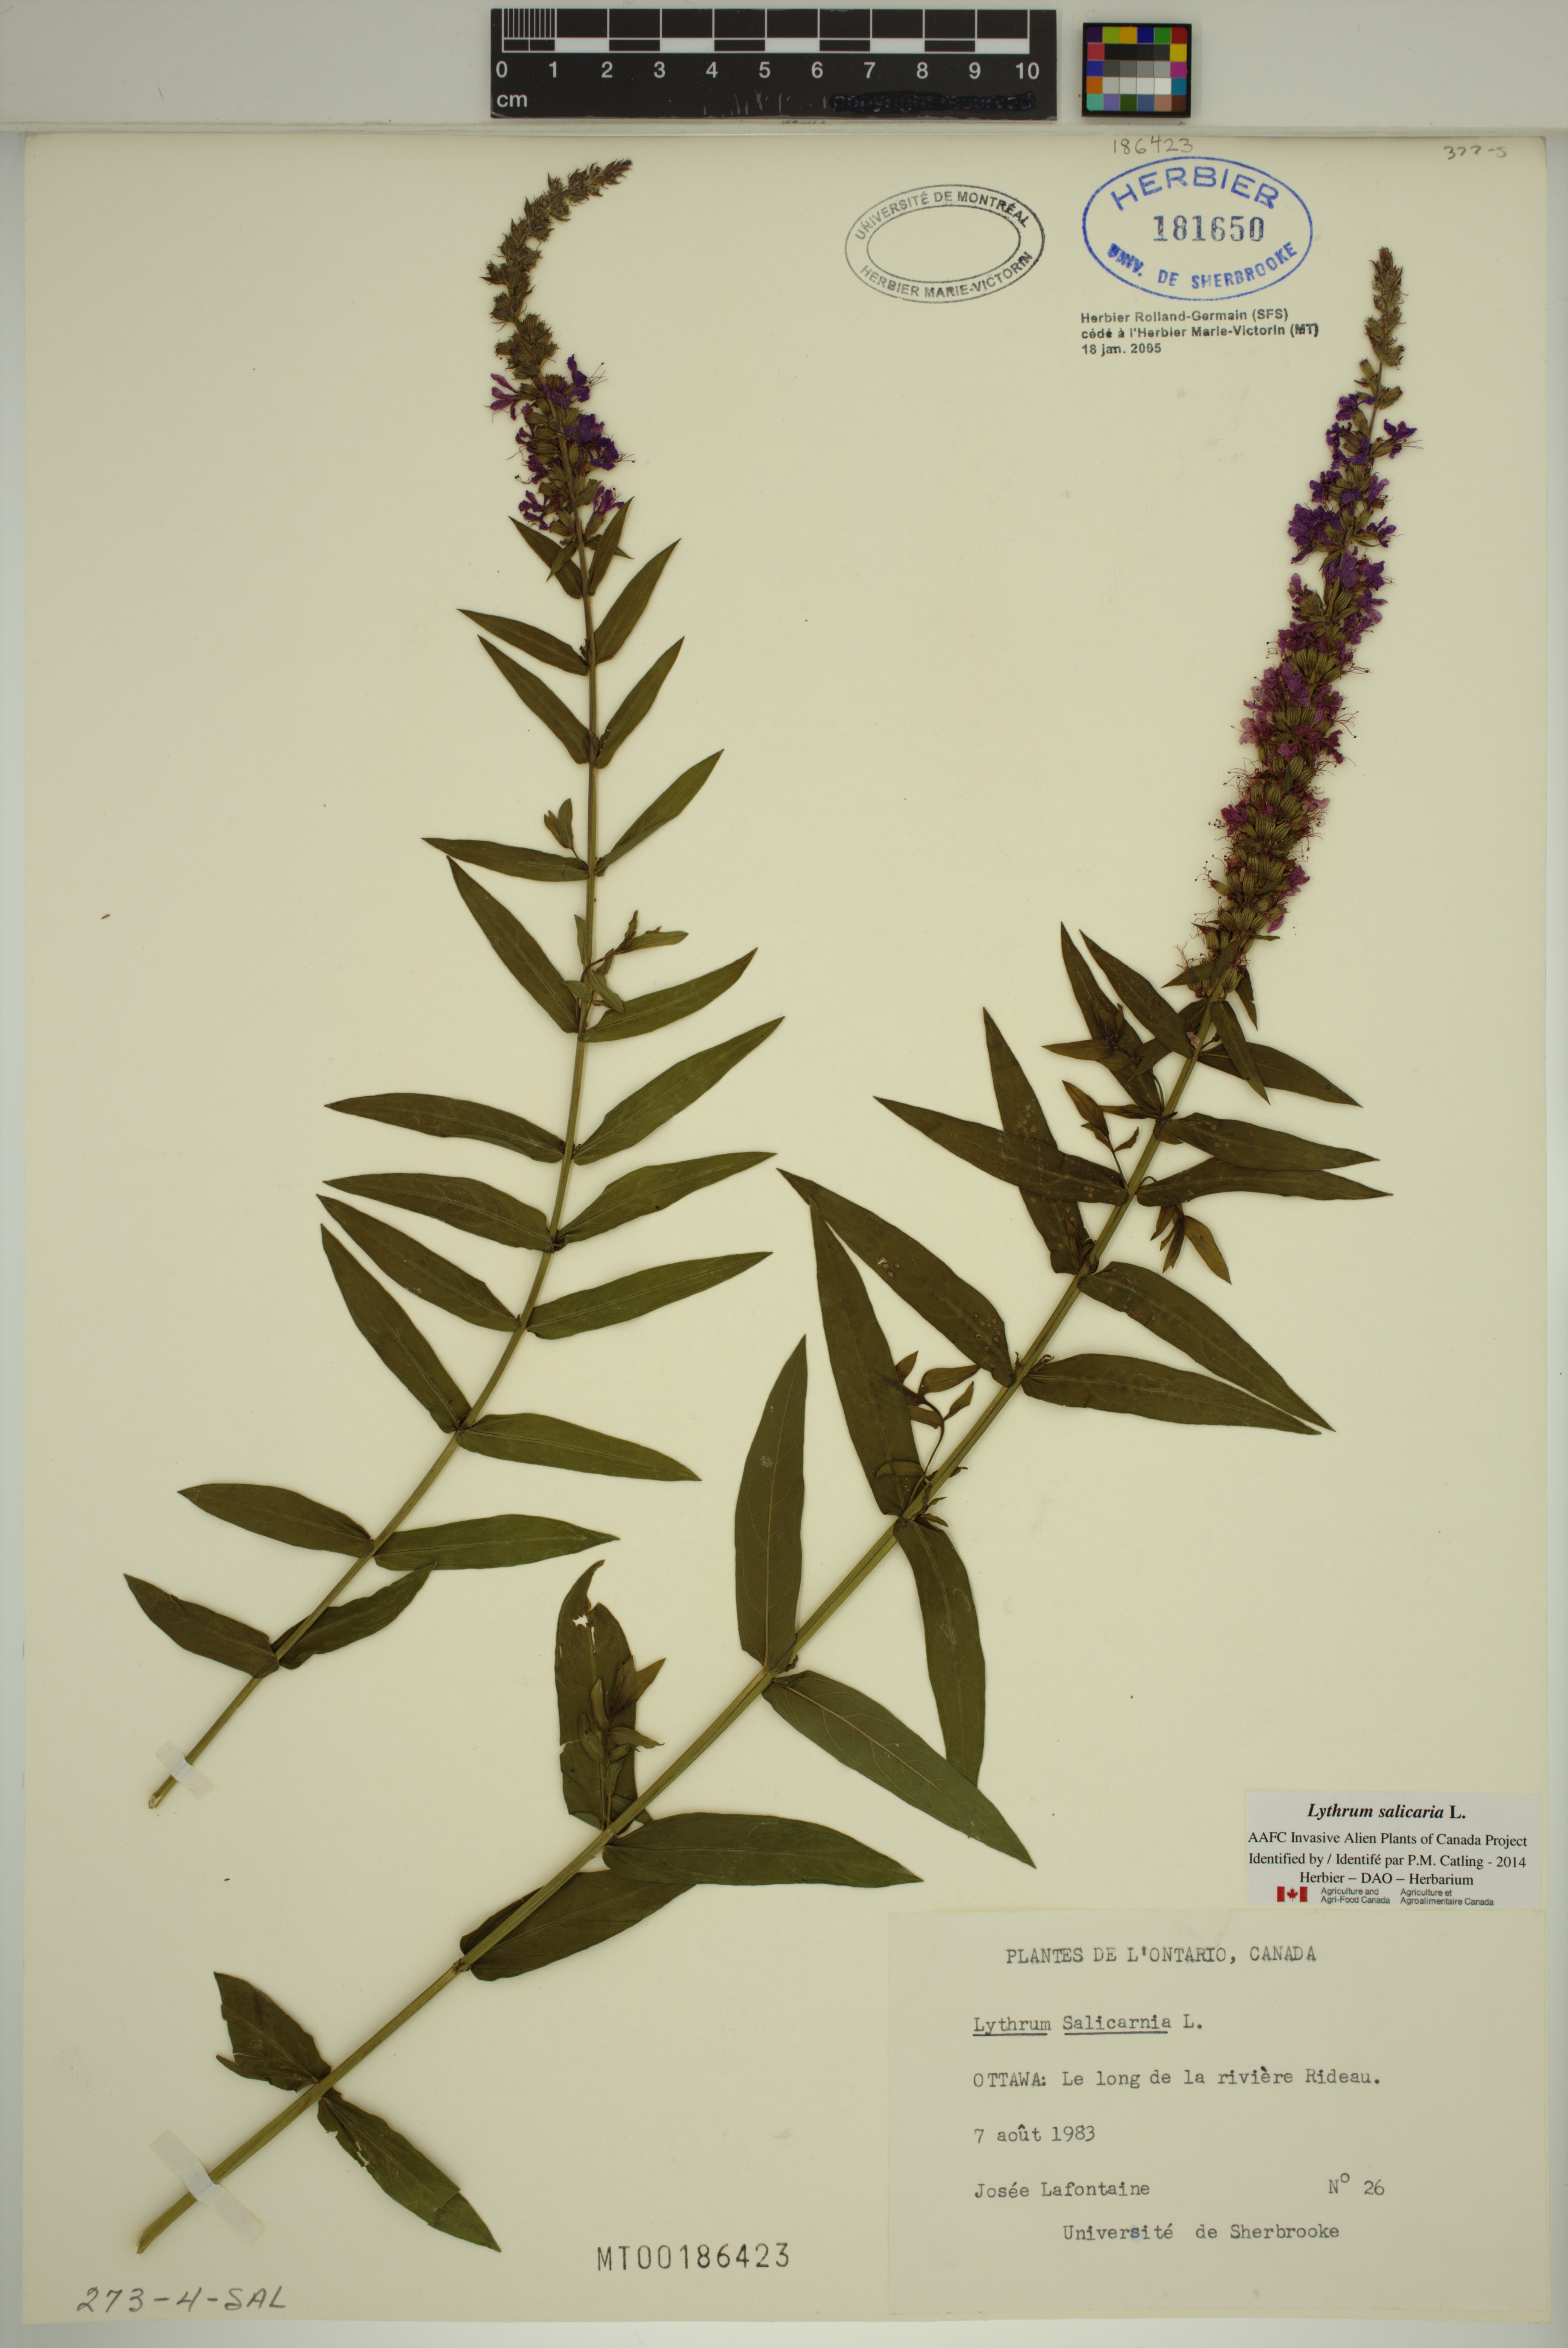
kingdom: Plantae
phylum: Tracheophyta
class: Magnoliopsida
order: Myrtales
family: Lythraceae
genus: Lythrum
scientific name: Lythrum salicaria
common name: Purple loosestrife
